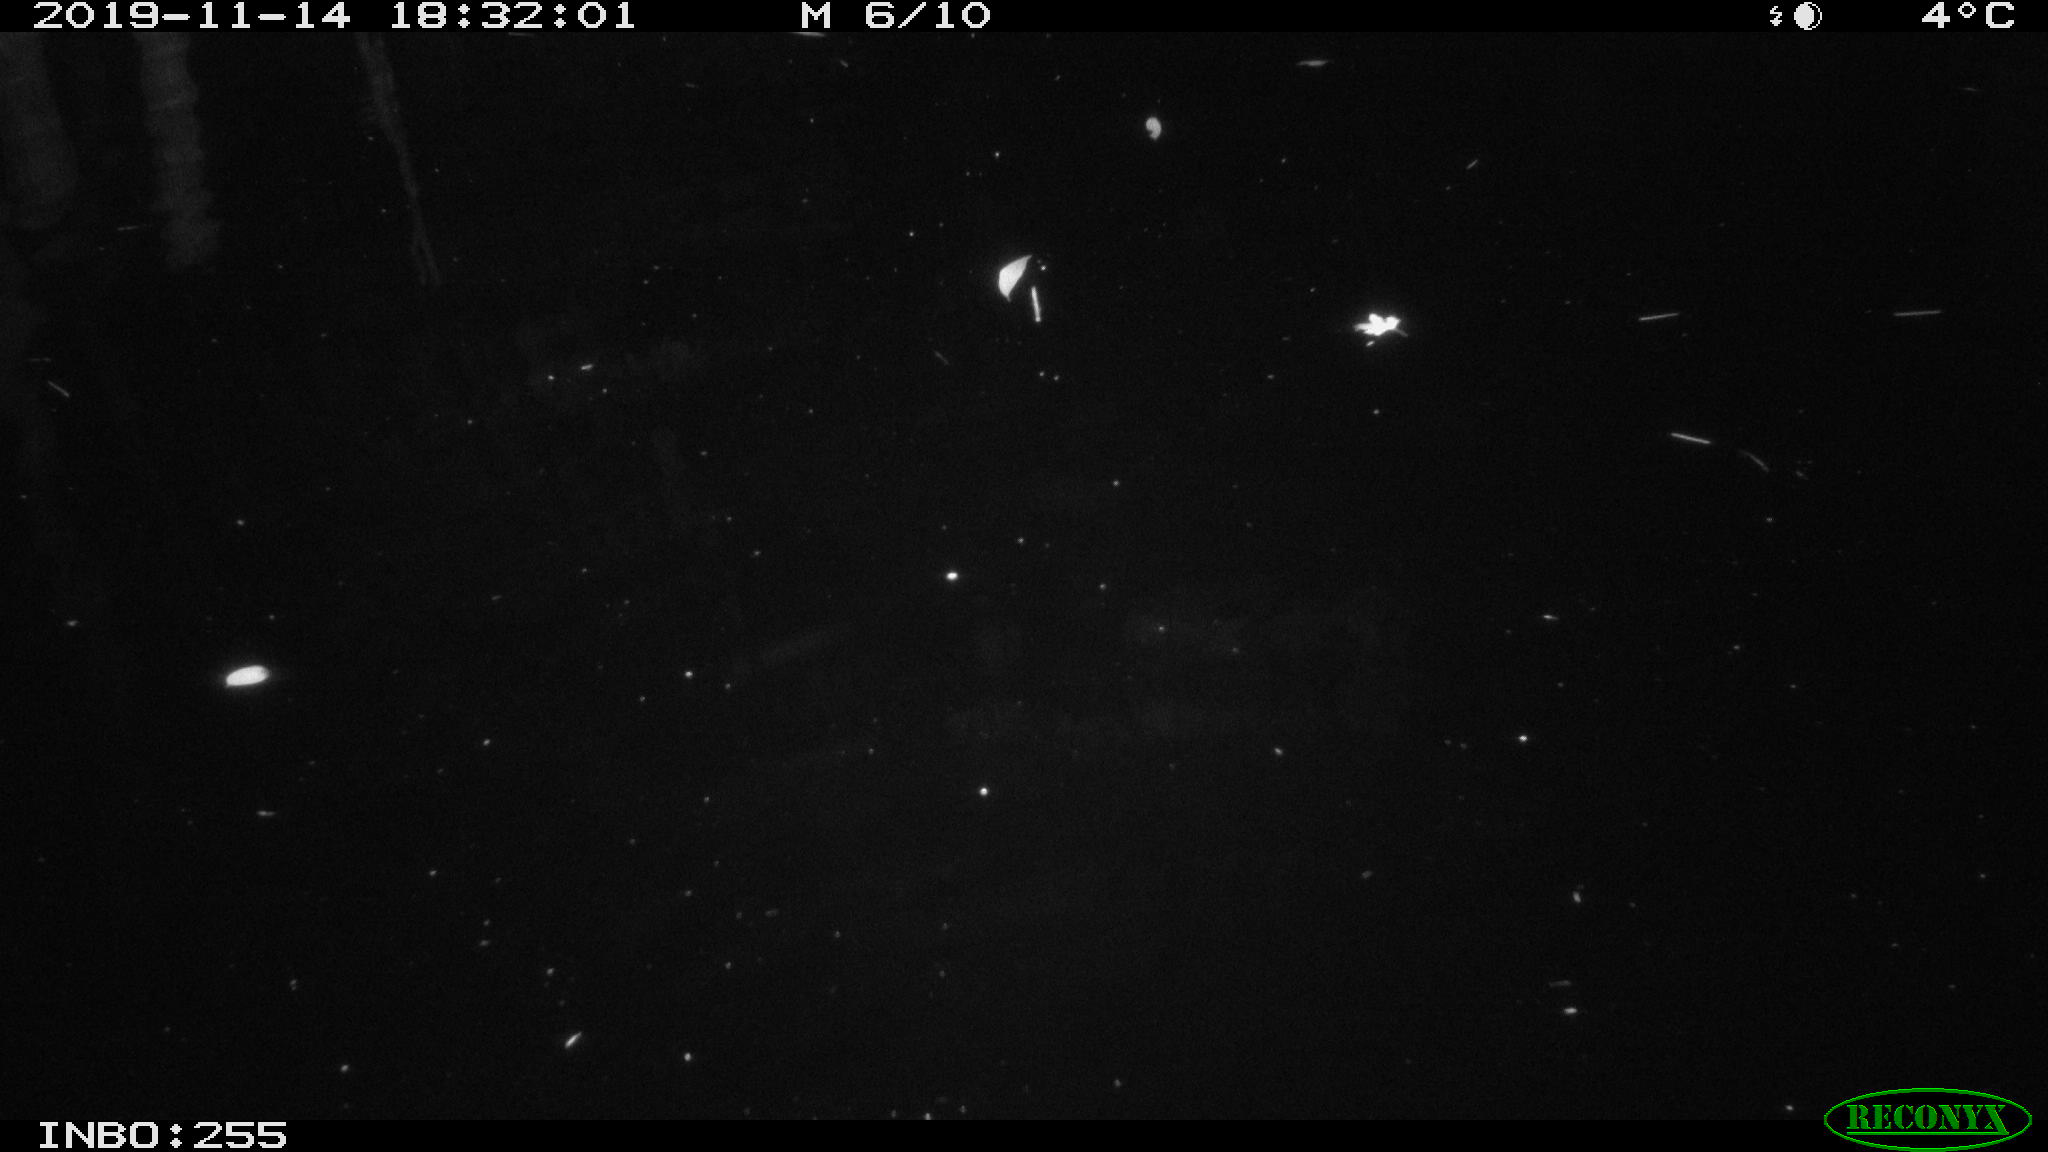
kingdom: Animalia
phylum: Chordata
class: Mammalia
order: Rodentia
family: Cricetidae
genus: Ondatra
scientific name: Ondatra zibethicus
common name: Muskrat
